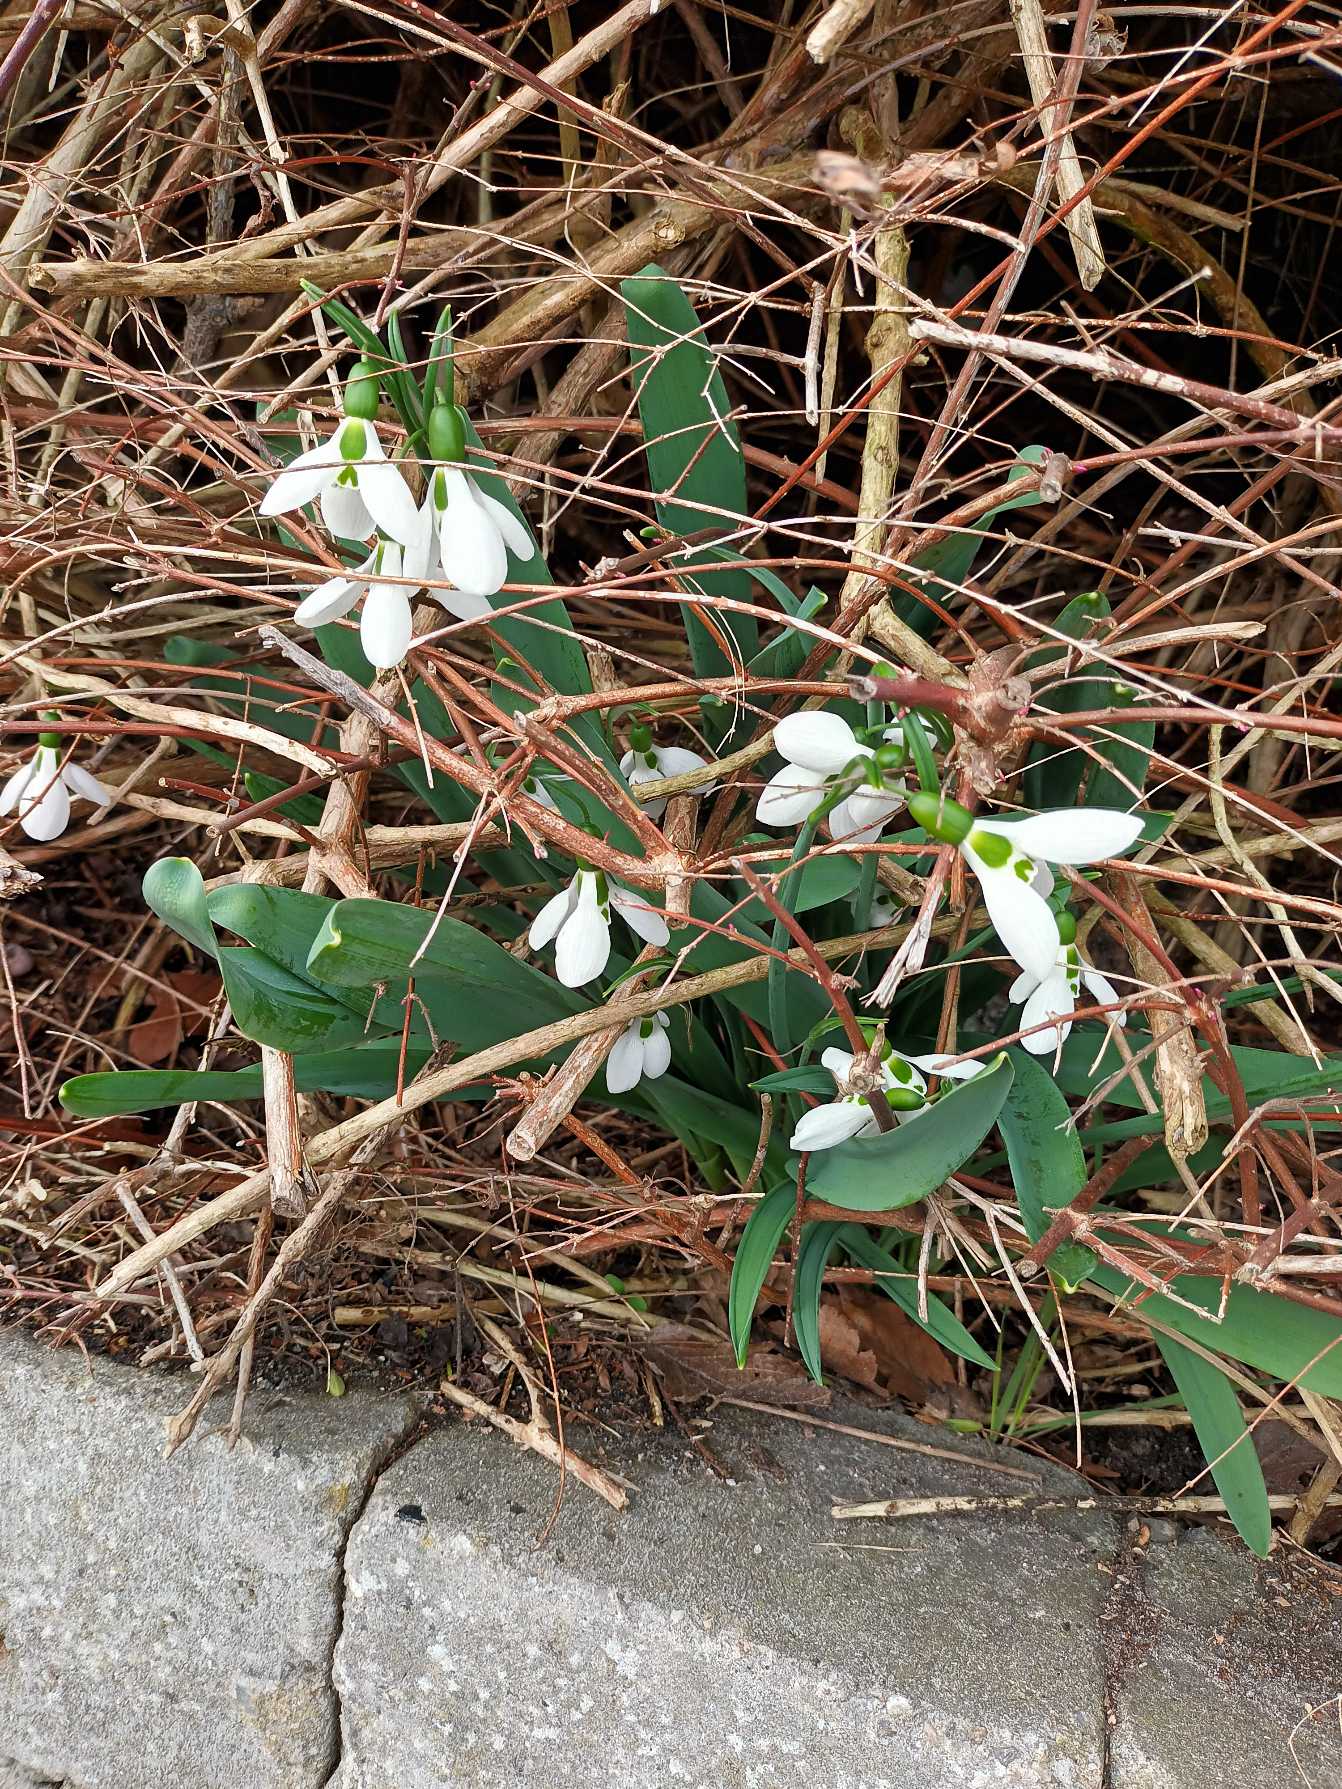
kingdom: Plantae
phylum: Tracheophyta
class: Liliopsida
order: Asparagales
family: Amaryllidaceae
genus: Galanthus
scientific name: Galanthus elwesii
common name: Tyrkisk vintergæk
